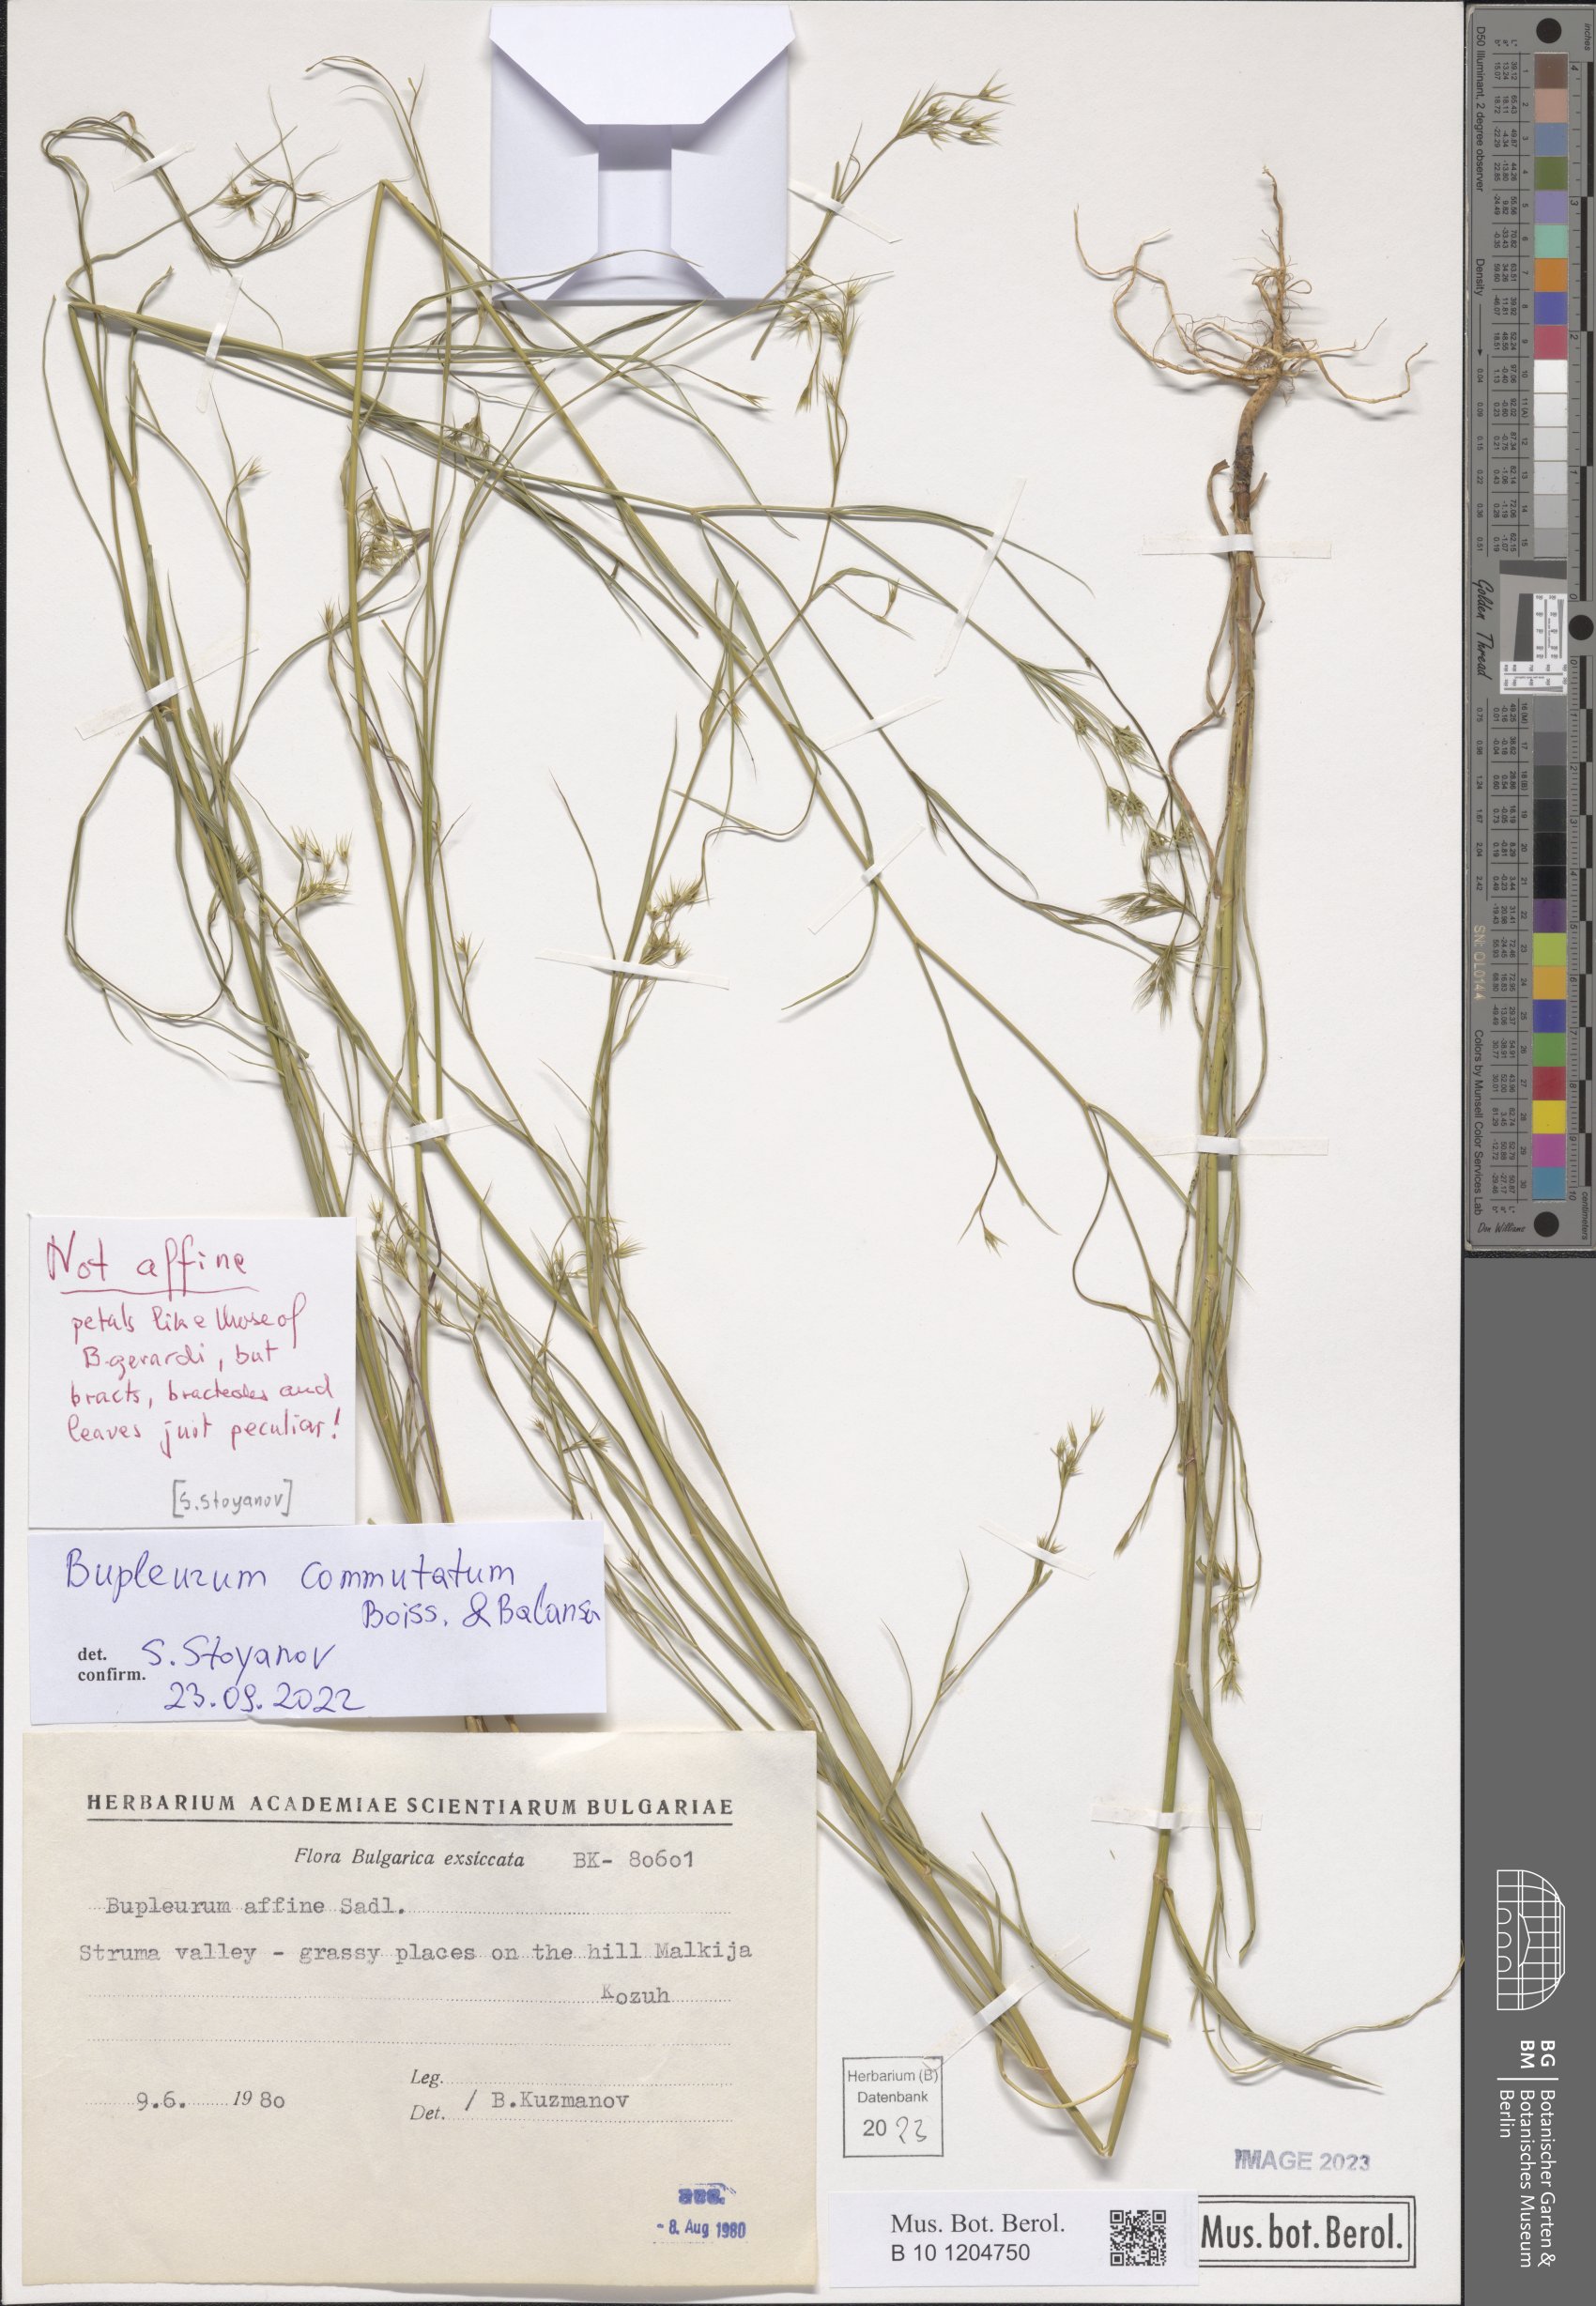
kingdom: Plantae
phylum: Tracheophyta
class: Magnoliopsida
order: Apiales
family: Apiaceae
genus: Bupleurum
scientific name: Bupleurum commutatum
